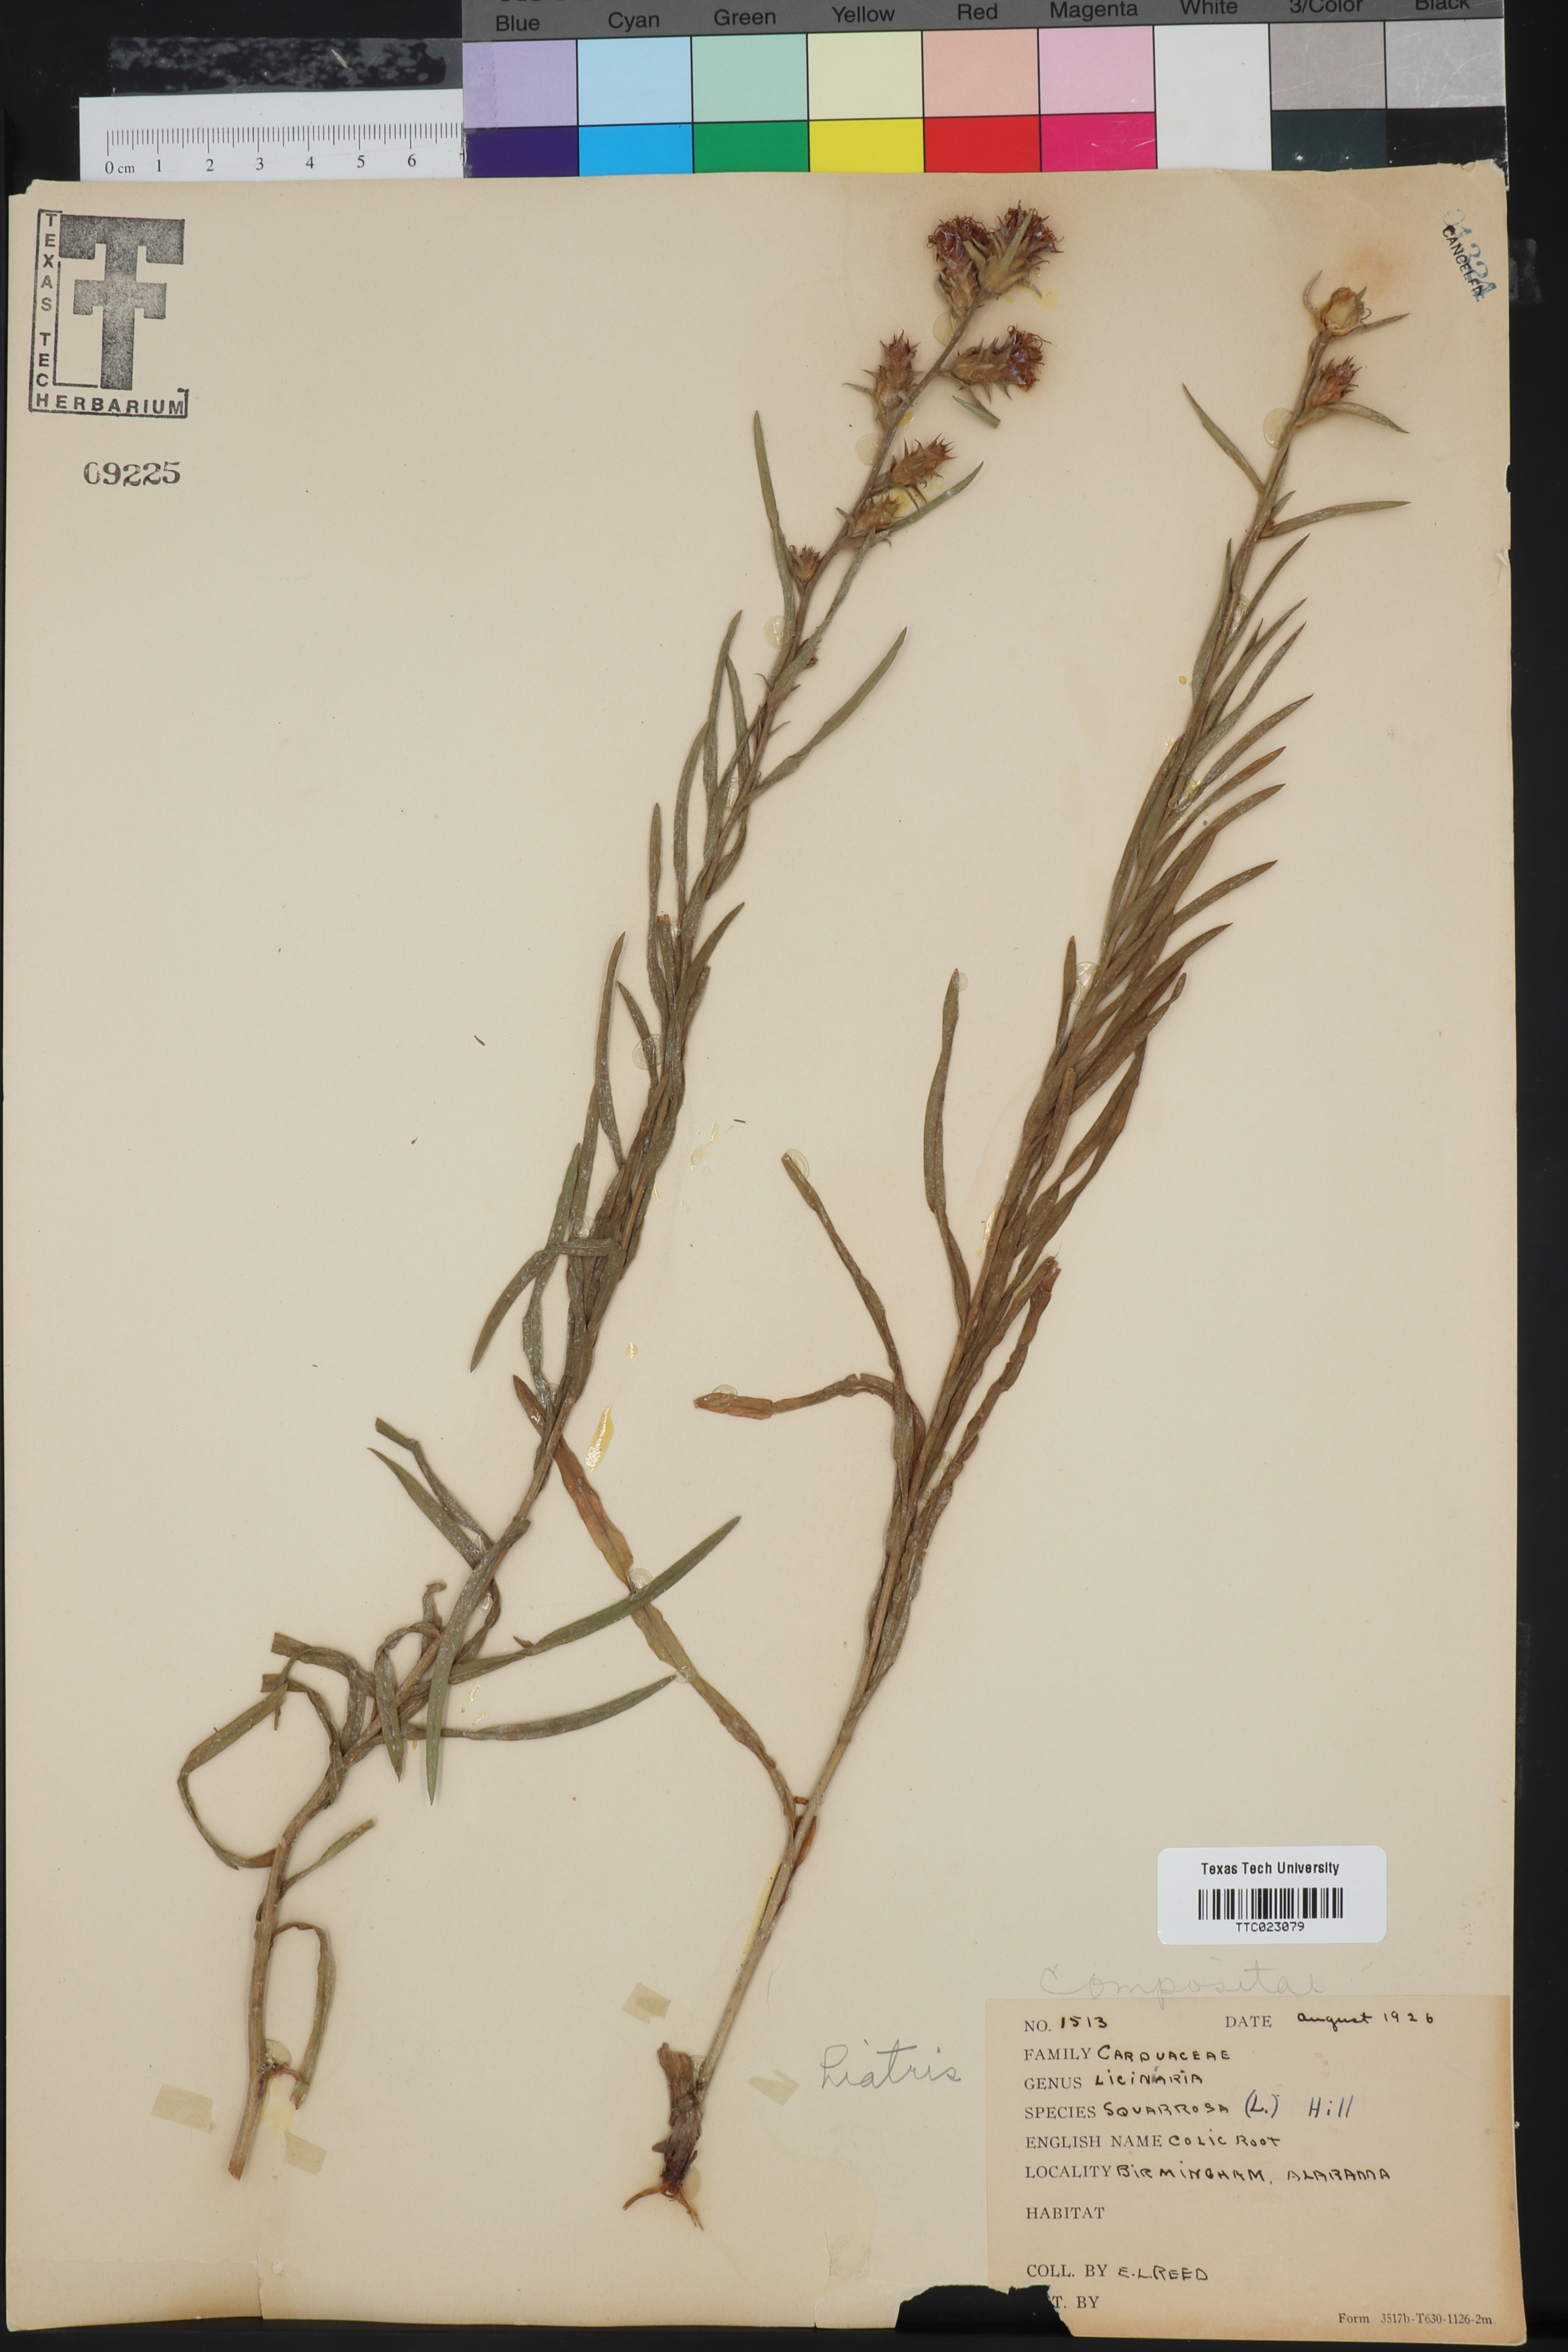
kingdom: Plantae
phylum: Tracheophyta
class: Magnoliopsida
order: Asterales
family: Asteraceae
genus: Liatris
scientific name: Liatris squarrosa
